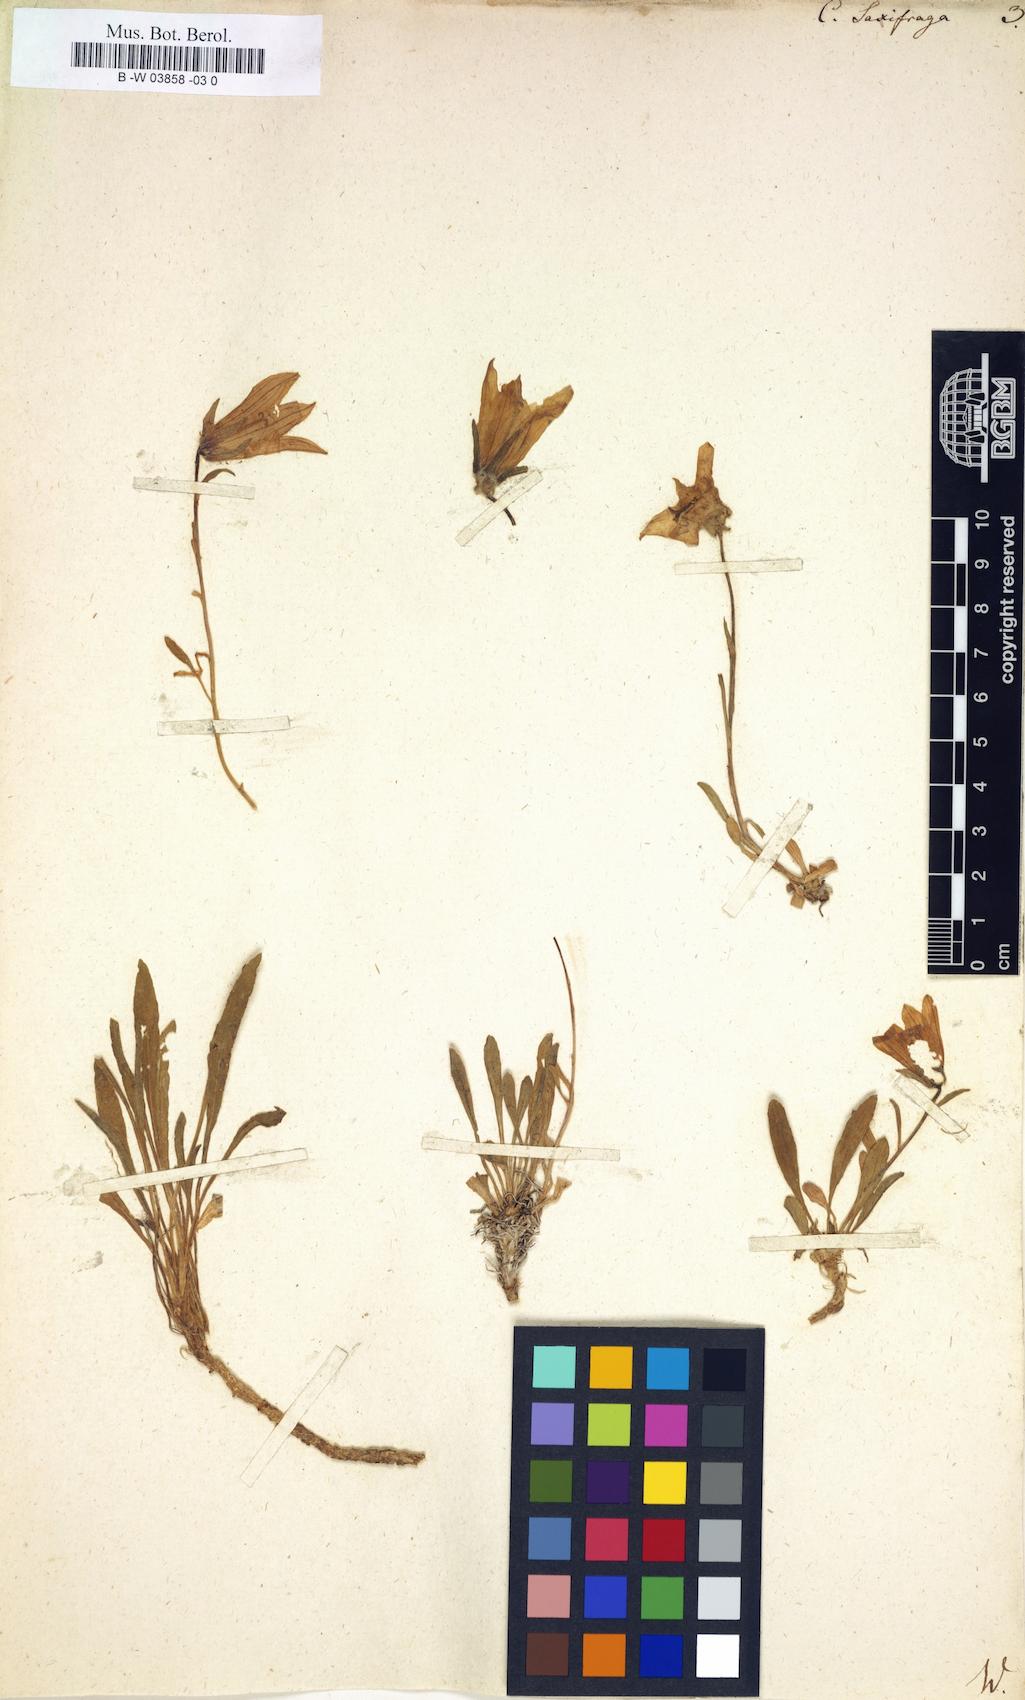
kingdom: Plantae
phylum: Tracheophyta
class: Magnoliopsida
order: Asterales
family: Campanulaceae
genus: Campanula
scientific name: Campanula saxifraga
